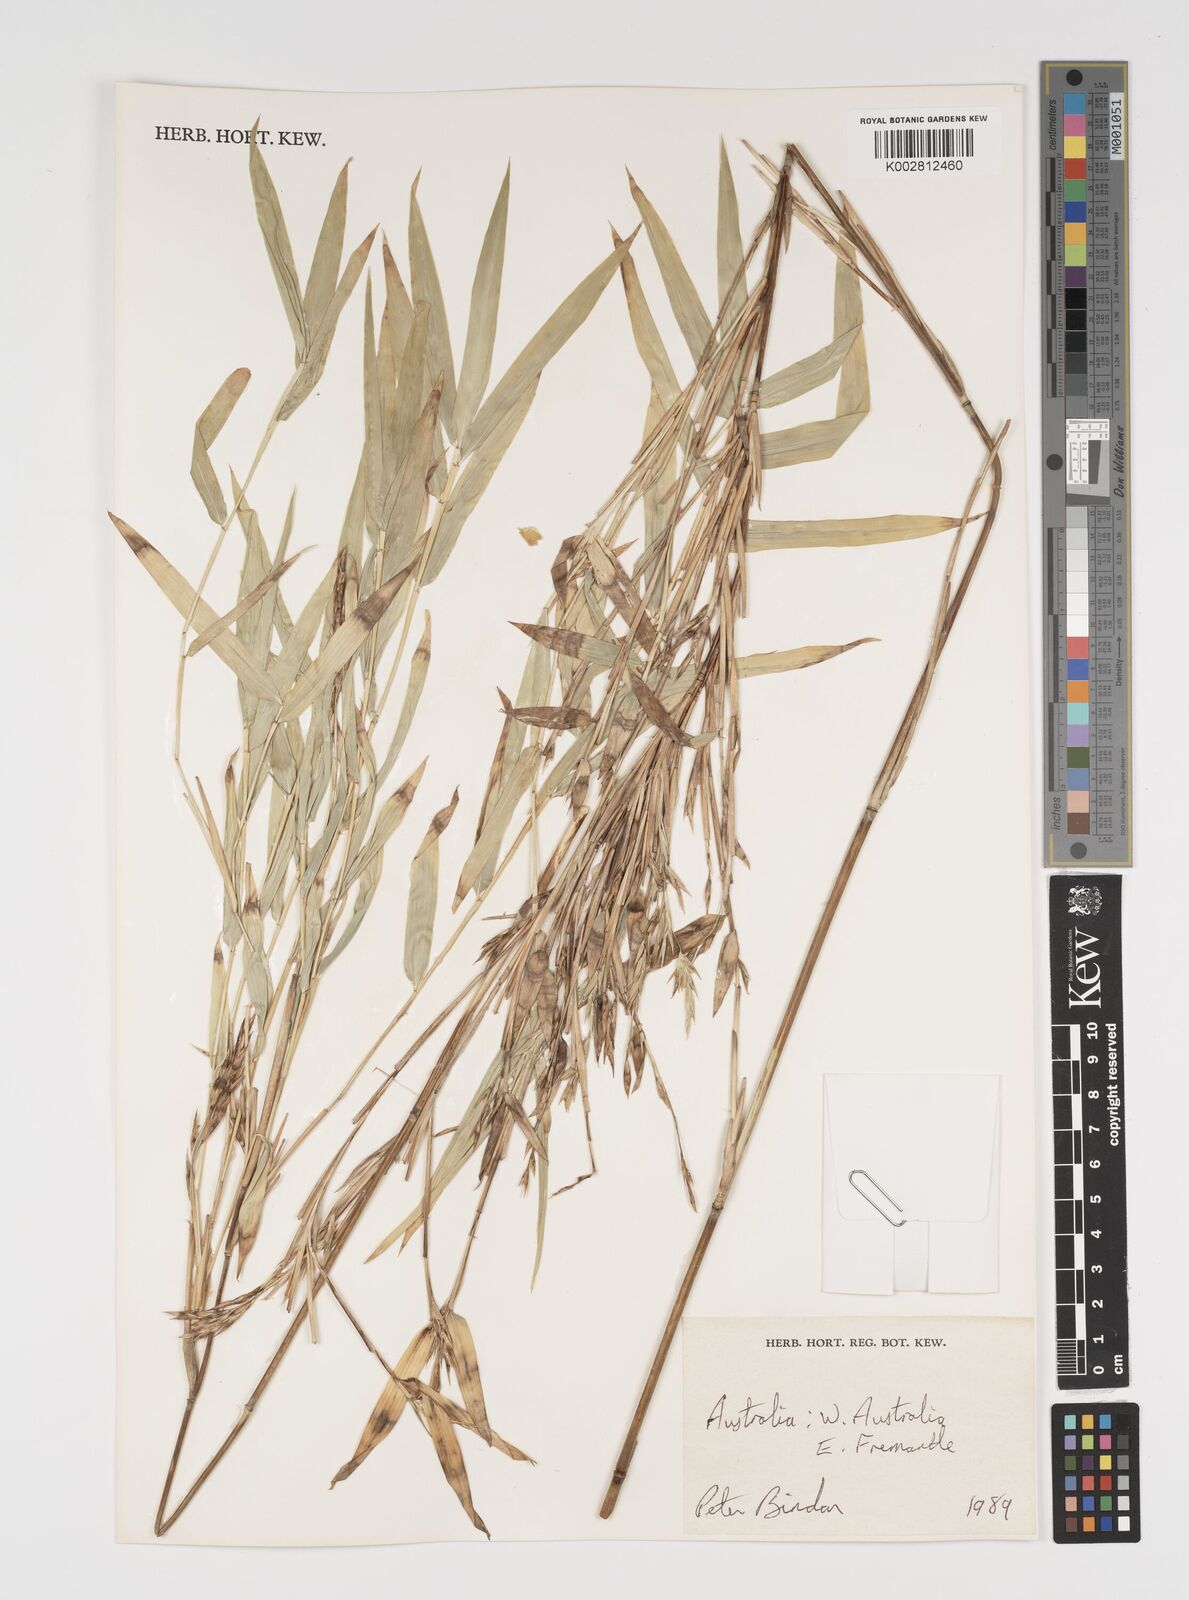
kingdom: Plantae
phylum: Tracheophyta
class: Liliopsida
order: Poales
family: Poaceae
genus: Yushania
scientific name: Yushania anceps
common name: Indian fountain-bamboo
